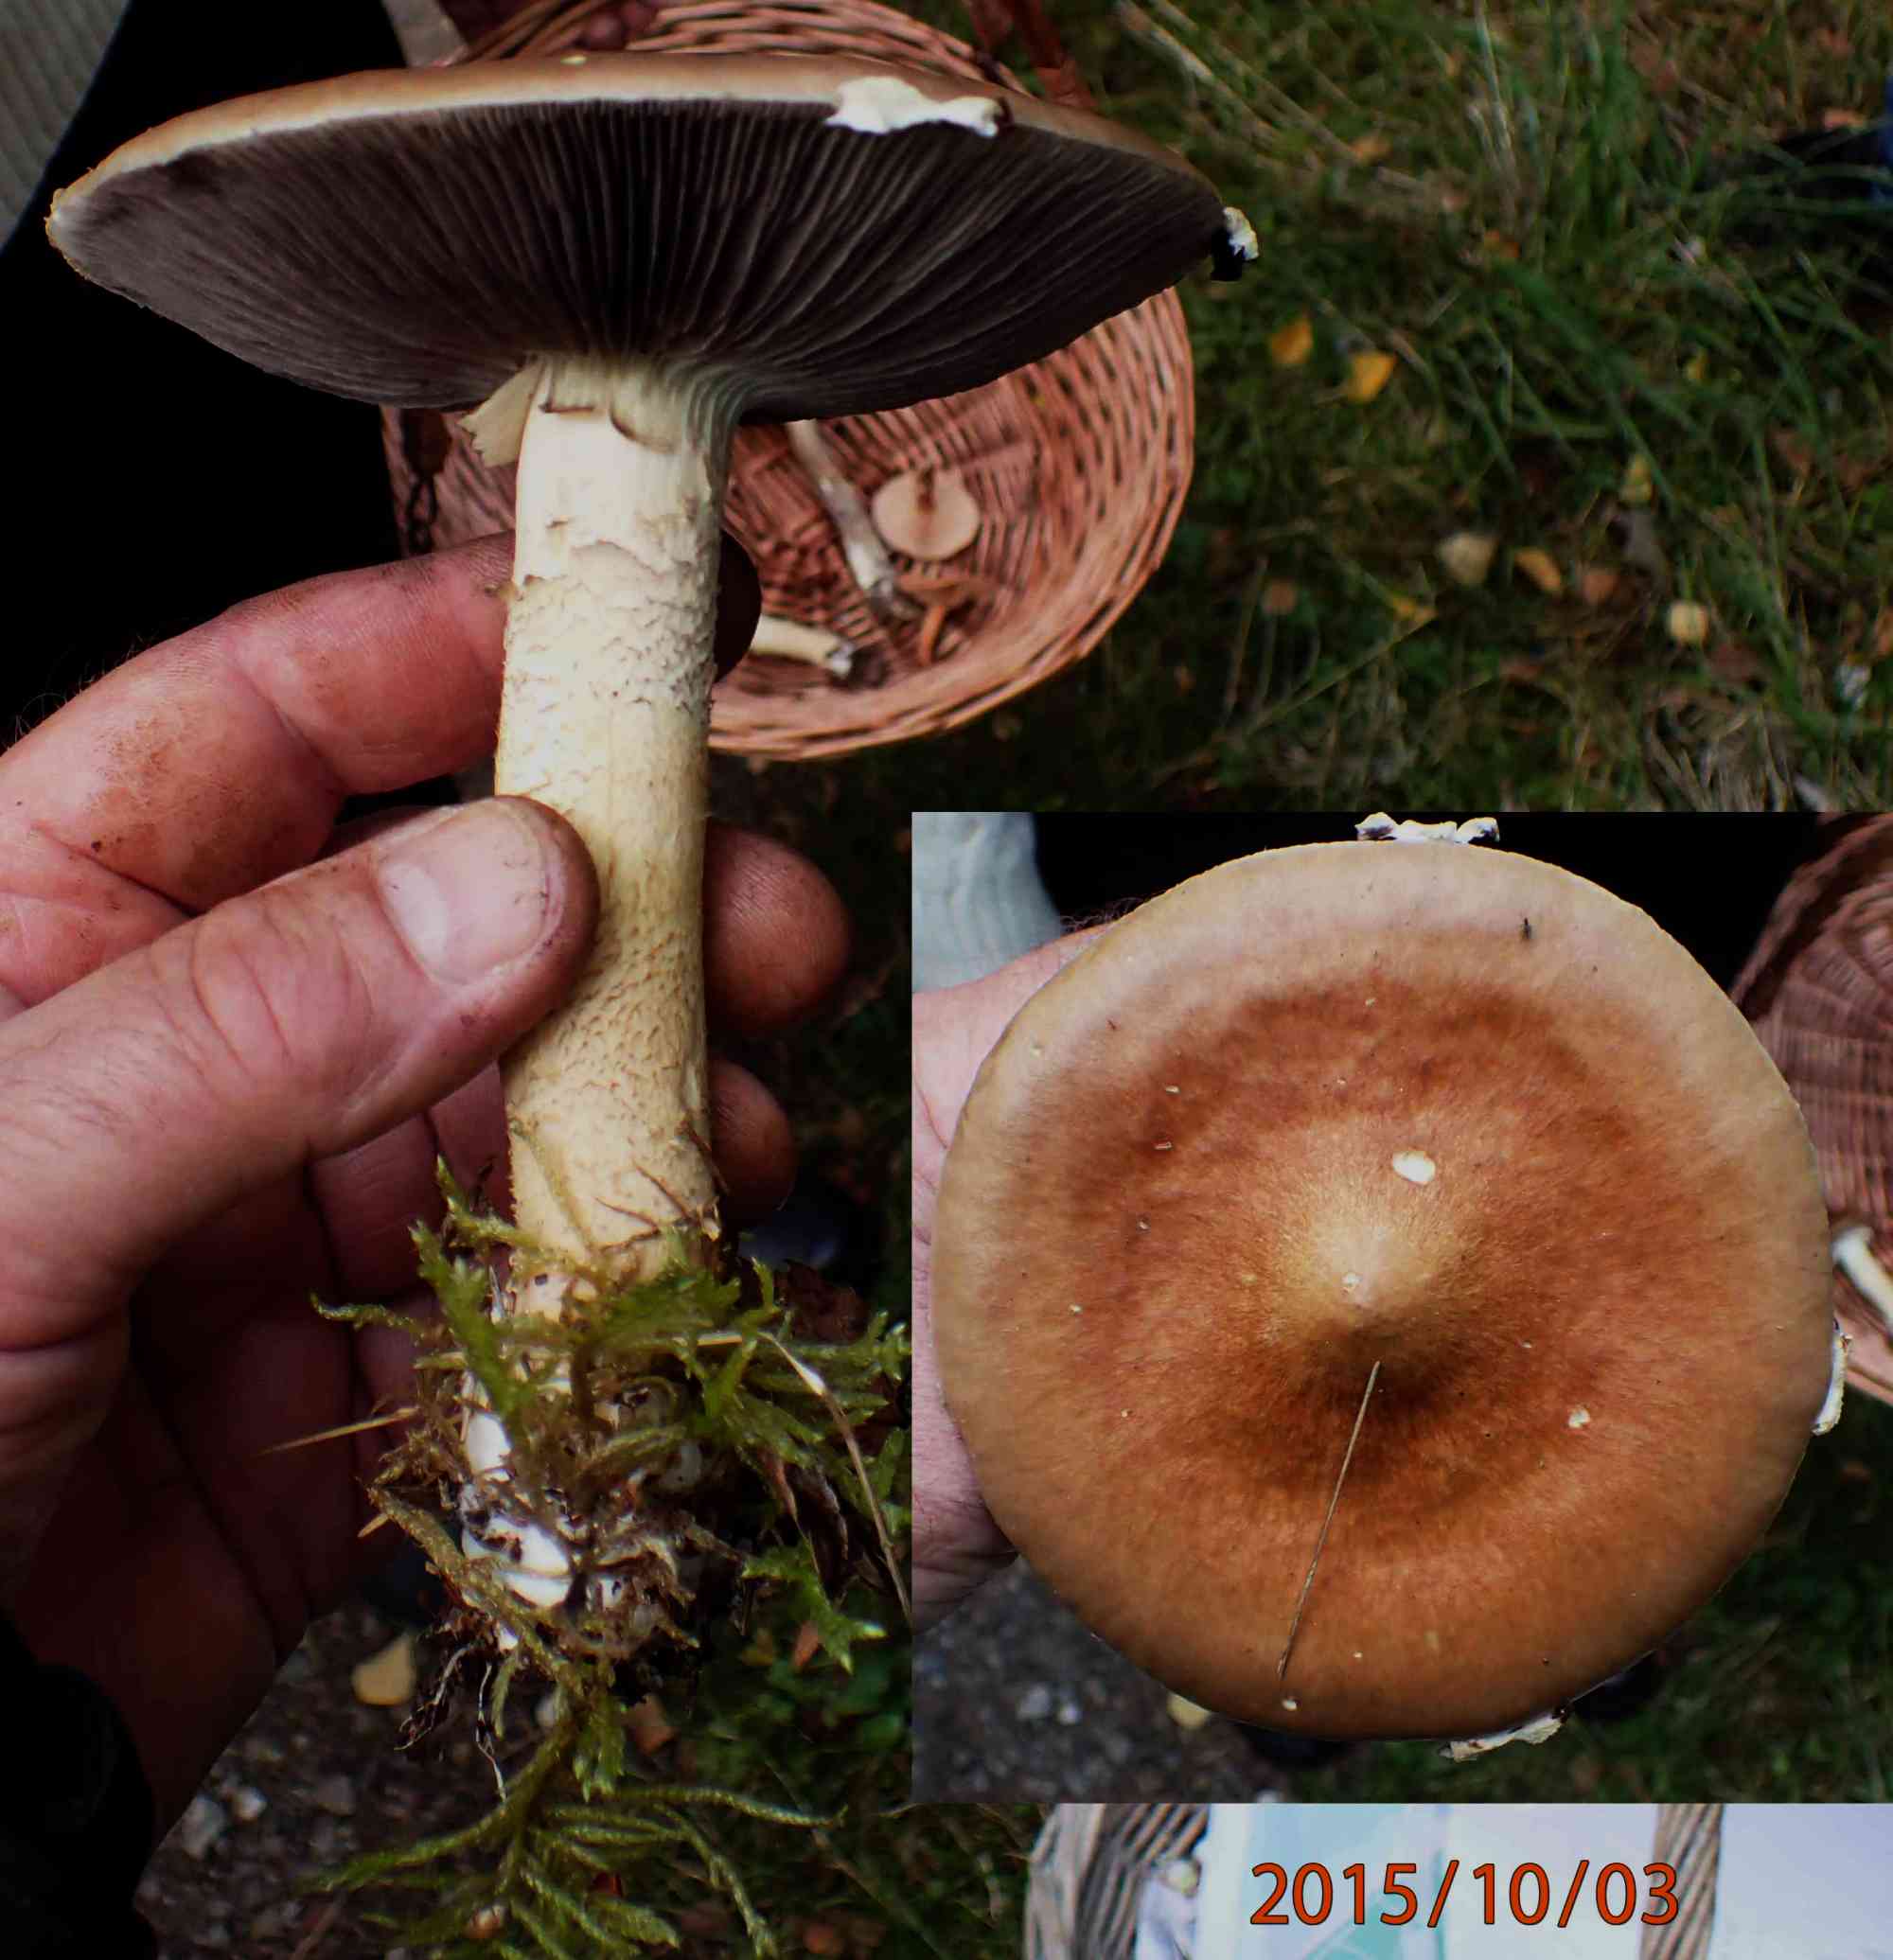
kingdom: Fungi
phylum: Basidiomycota
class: Agaricomycetes
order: Agaricales
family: Strophariaceae
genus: Stropharia
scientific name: Stropharia hornemannii
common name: nordisk bredblad
